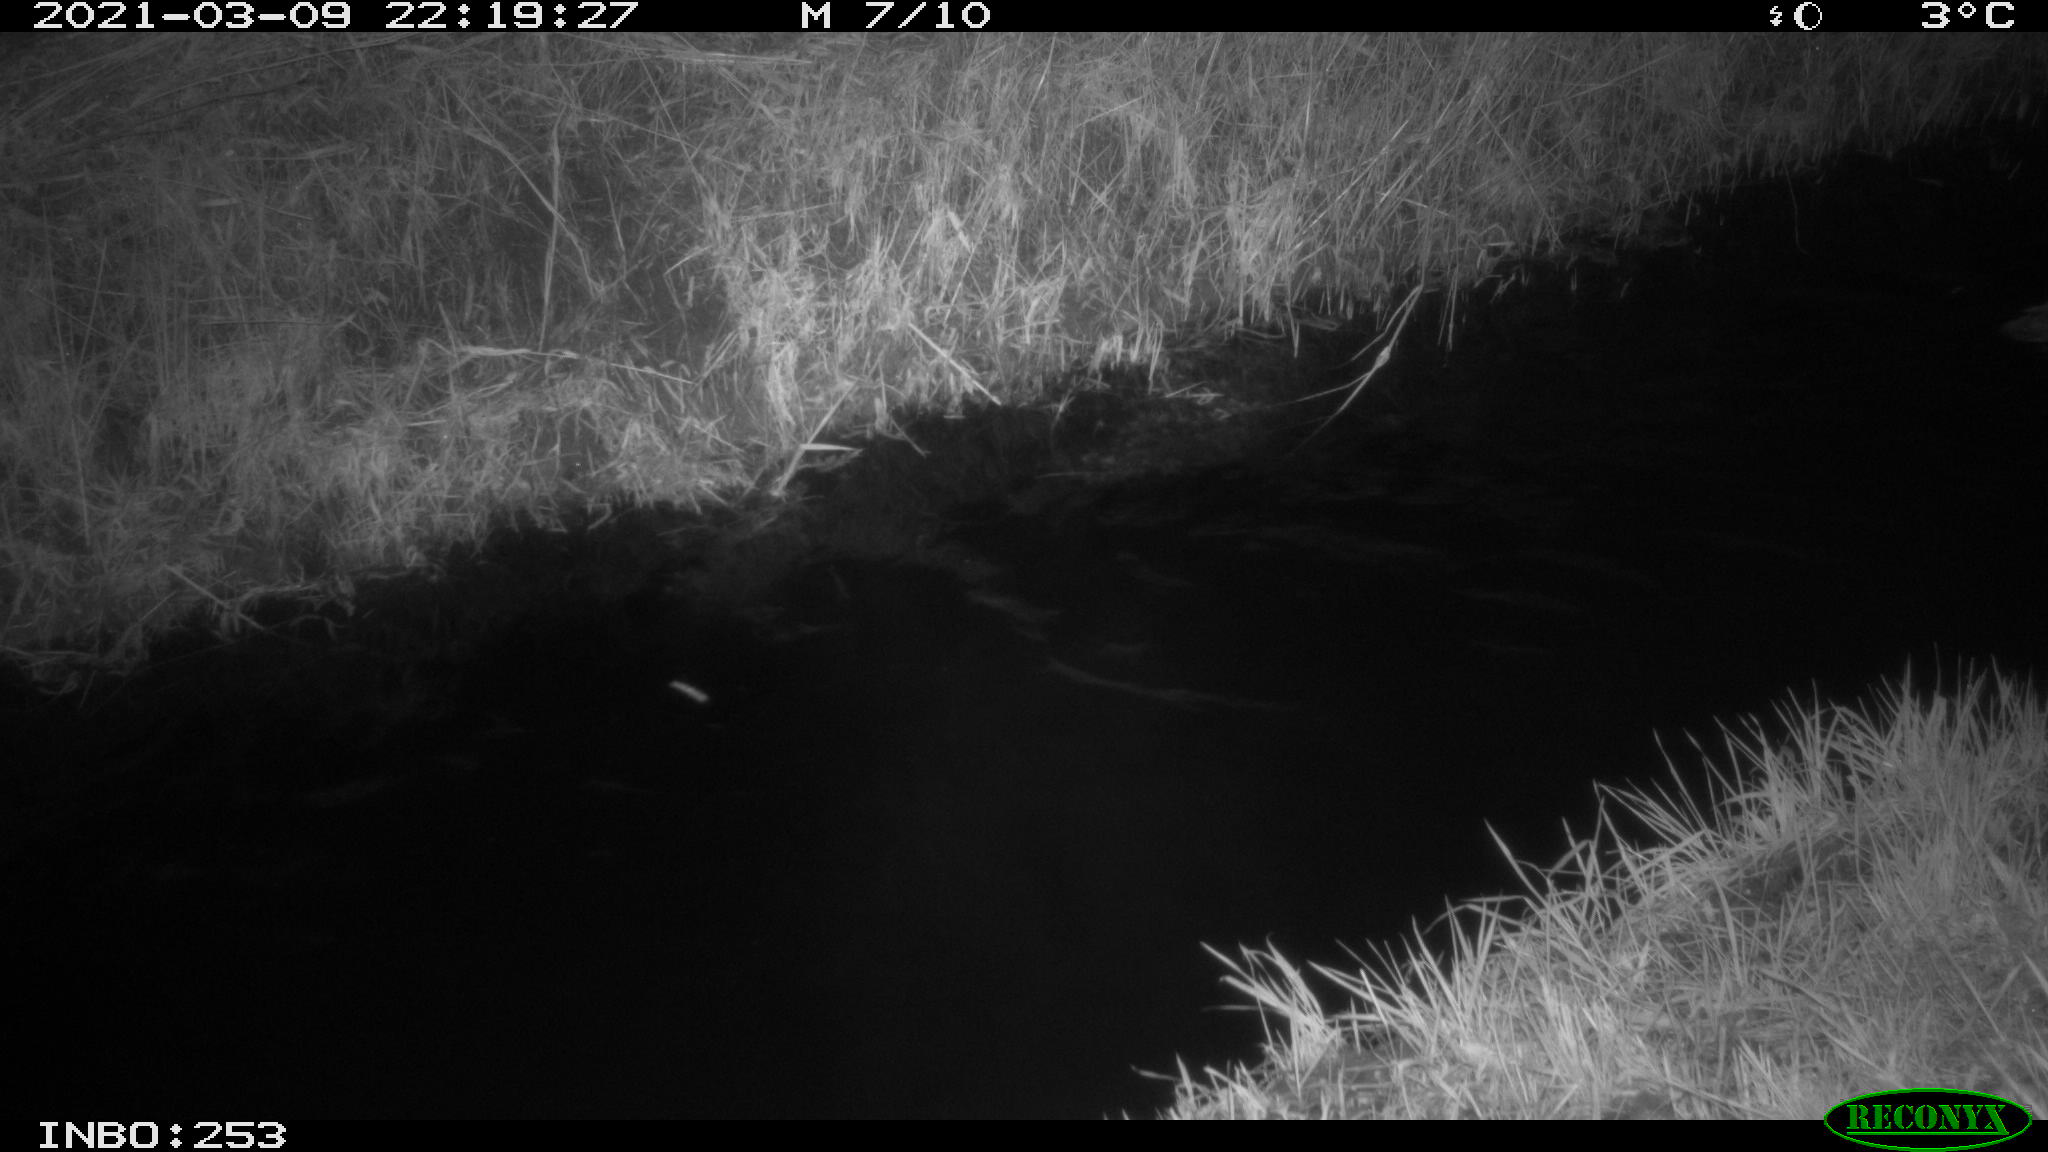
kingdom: Animalia
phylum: Chordata
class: Aves
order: Anseriformes
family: Anatidae
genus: Anas
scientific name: Anas platyrhynchos
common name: Mallard
